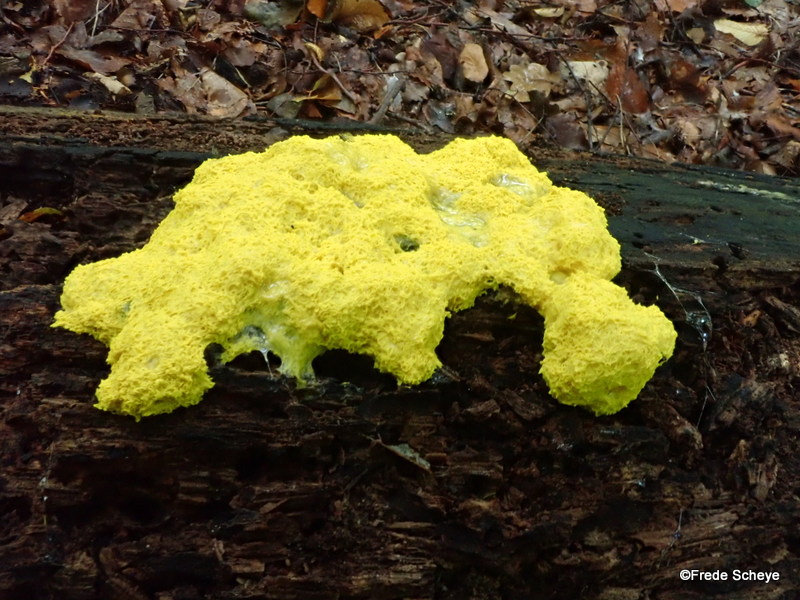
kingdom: Protozoa
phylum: Mycetozoa
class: Myxomycetes
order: Physarales
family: Physaraceae
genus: Fuligo
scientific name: Fuligo septica
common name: gul troldsmør
